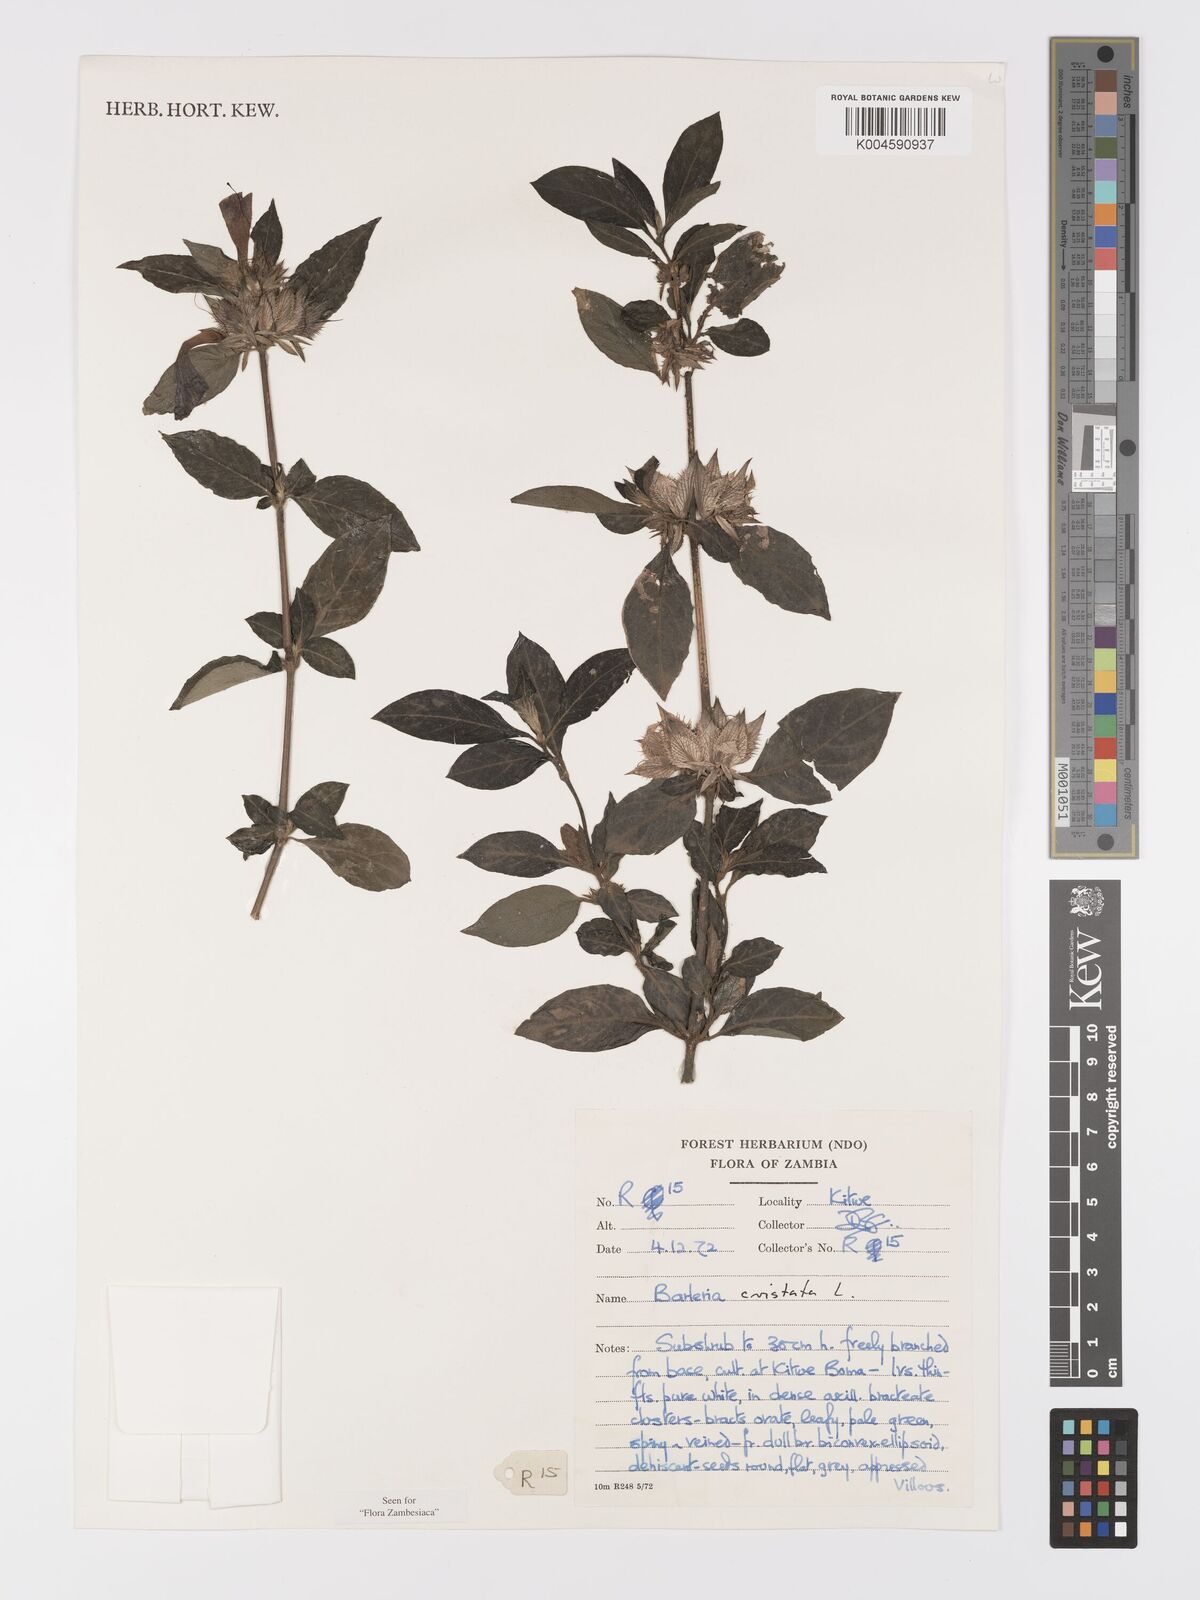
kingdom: Plantae
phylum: Tracheophyta
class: Magnoliopsida
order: Lamiales
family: Acanthaceae
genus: Barleria
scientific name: Barleria cristata
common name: Crested philippine violet
